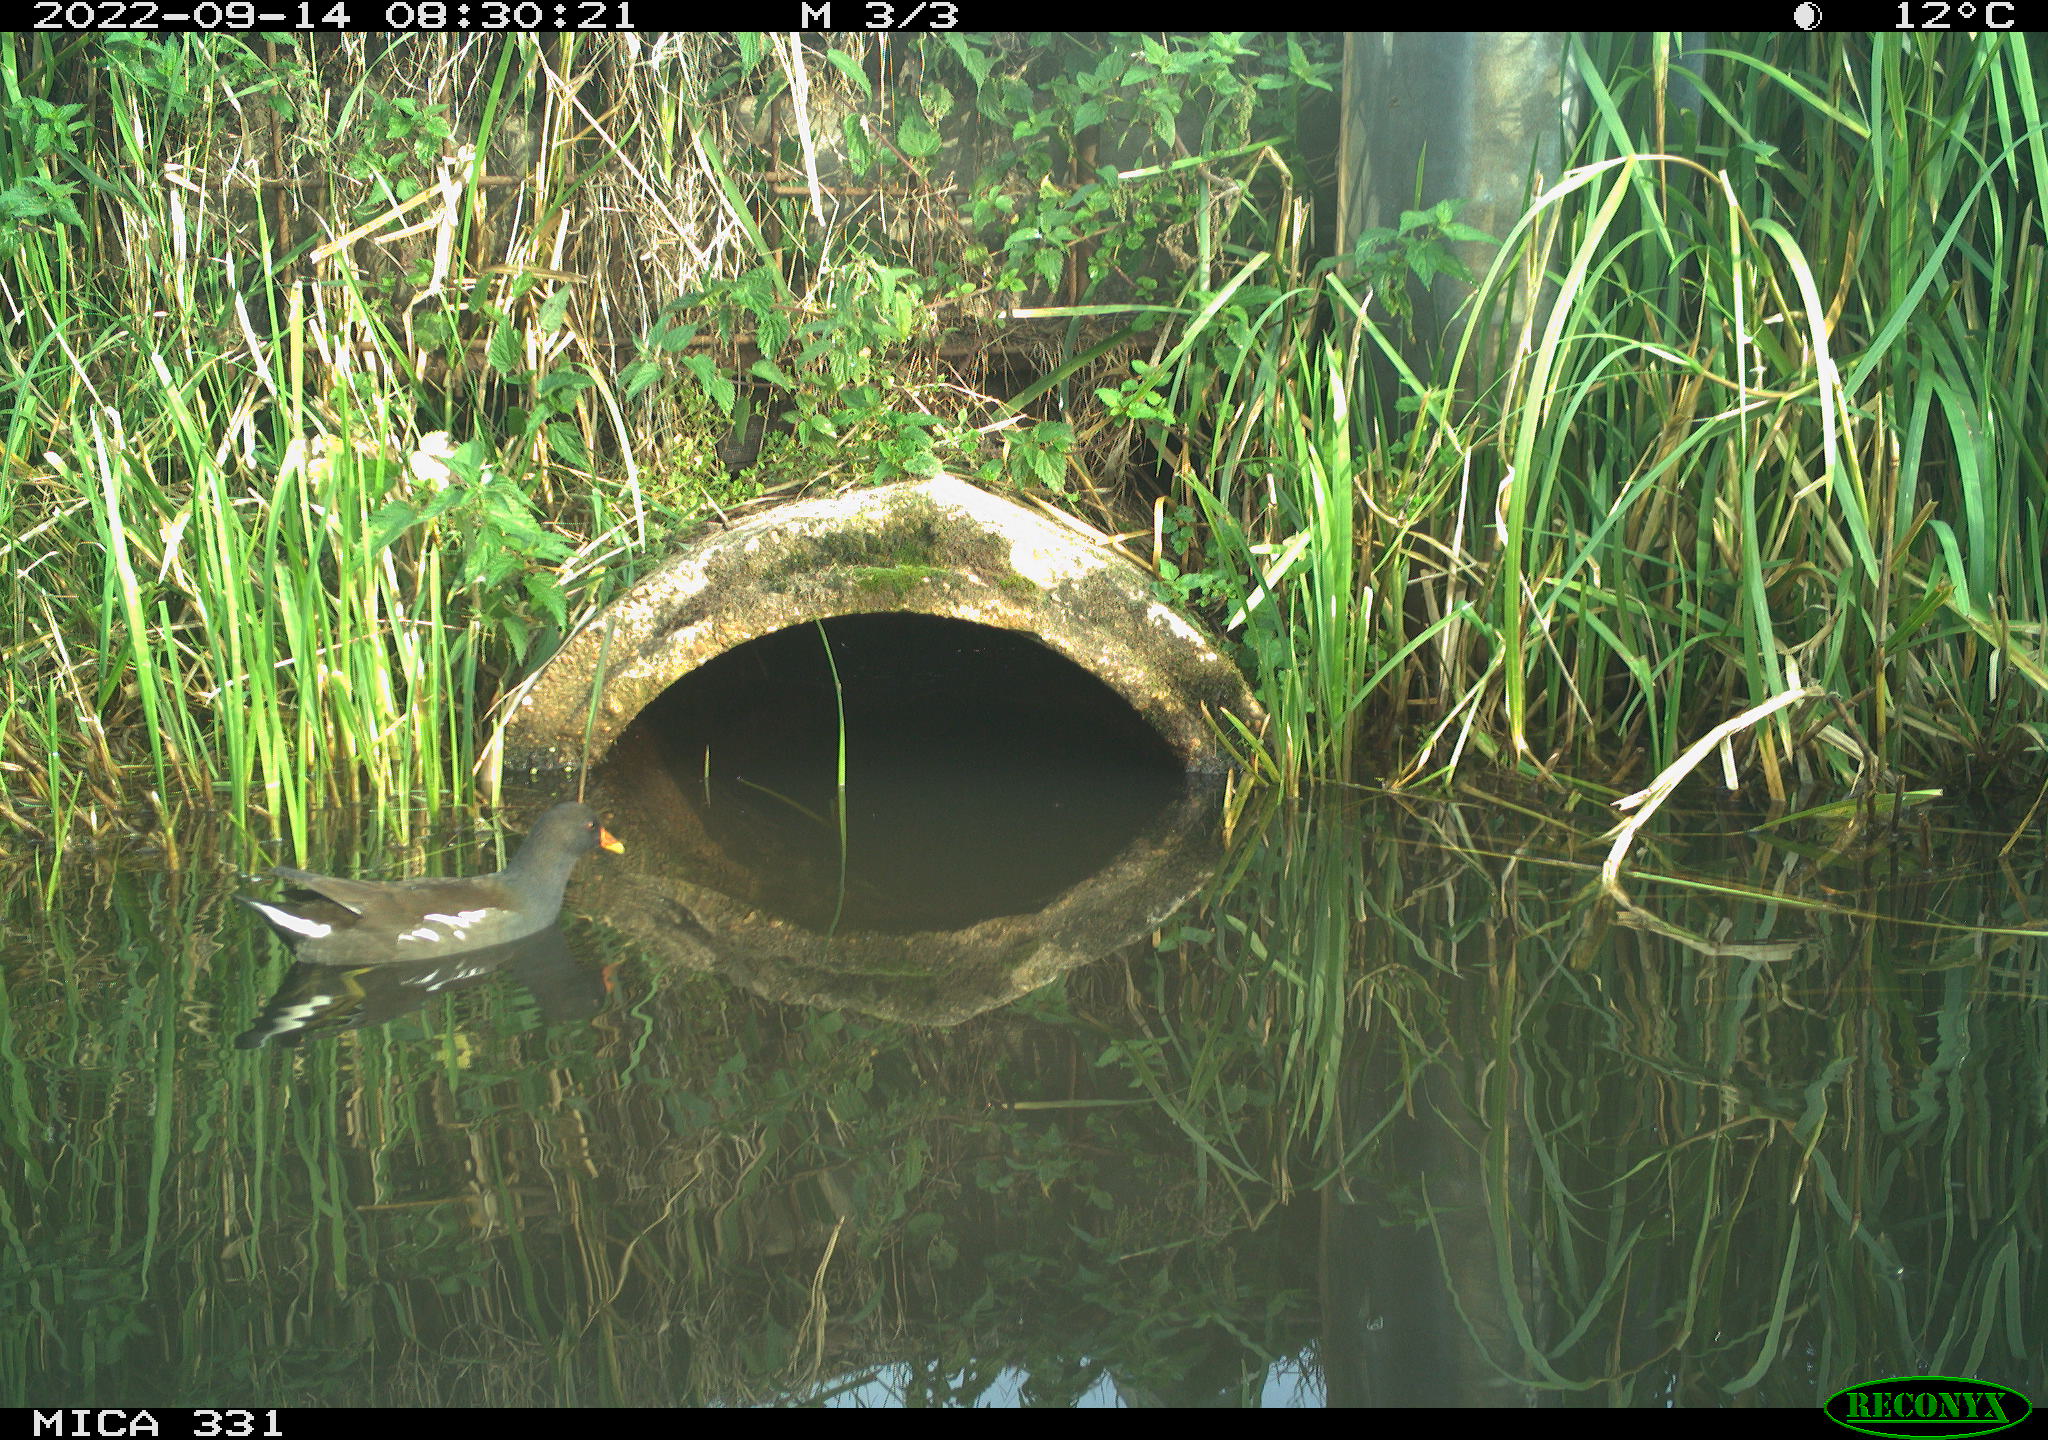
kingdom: Animalia
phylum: Chordata
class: Aves
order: Gruiformes
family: Rallidae
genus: Gallinula
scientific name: Gallinula chloropus
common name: Common moorhen
